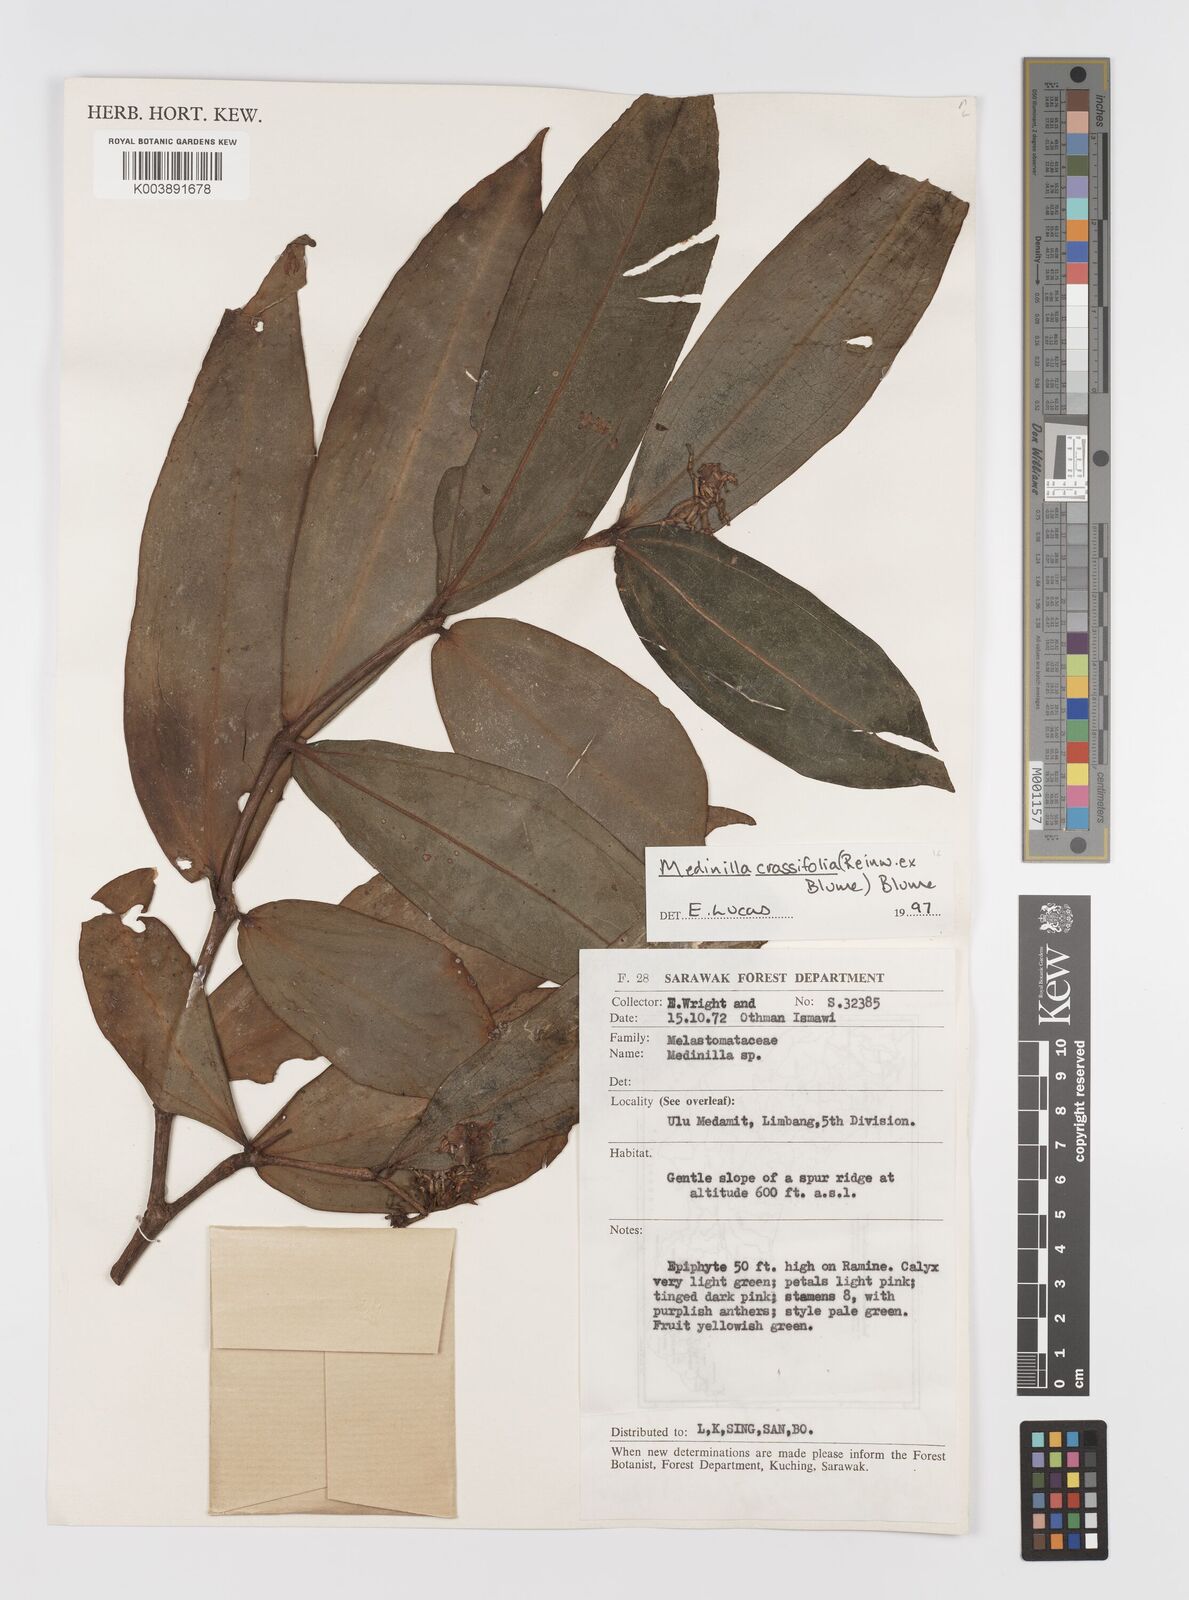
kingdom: Plantae
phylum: Tracheophyta
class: Magnoliopsida
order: Myrtales
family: Melastomataceae
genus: Medinilla
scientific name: Medinilla crassifolia
